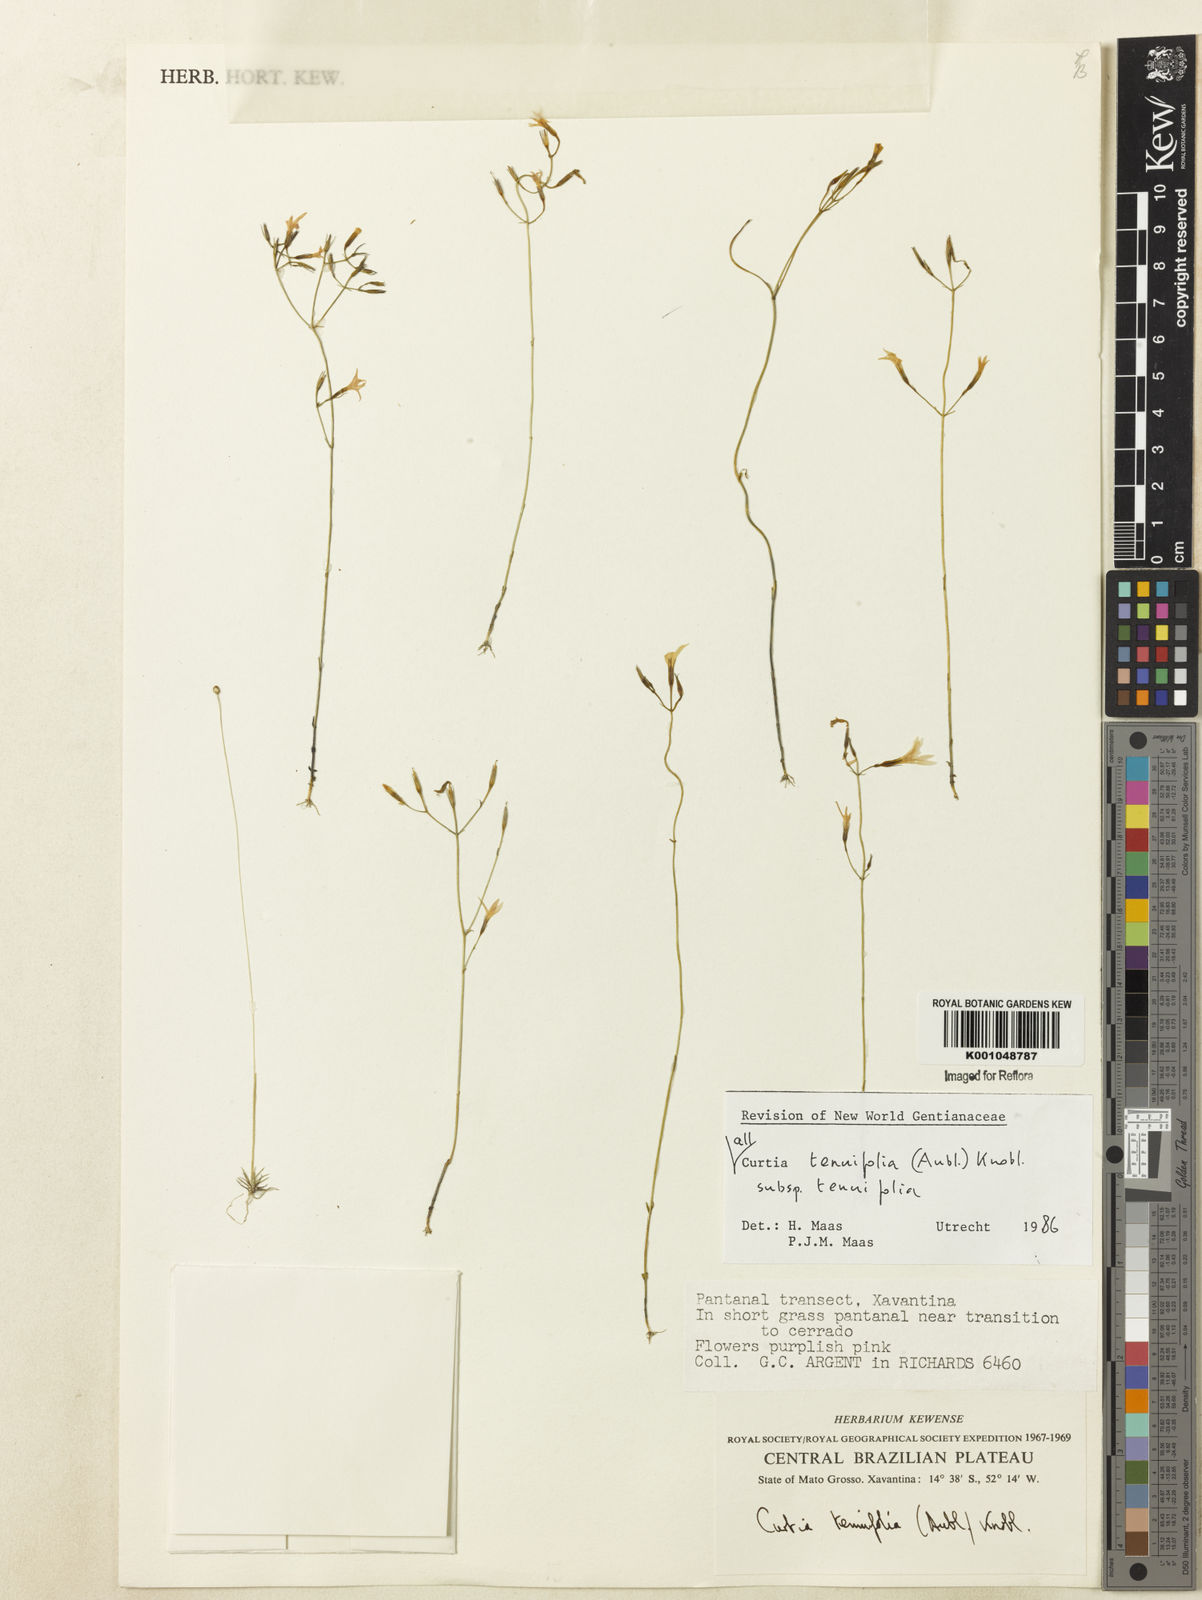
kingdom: Plantae
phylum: Tracheophyta
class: Magnoliopsida
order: Gentianales
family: Gentianaceae
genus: Curtia
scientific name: Curtia tenuifolia
